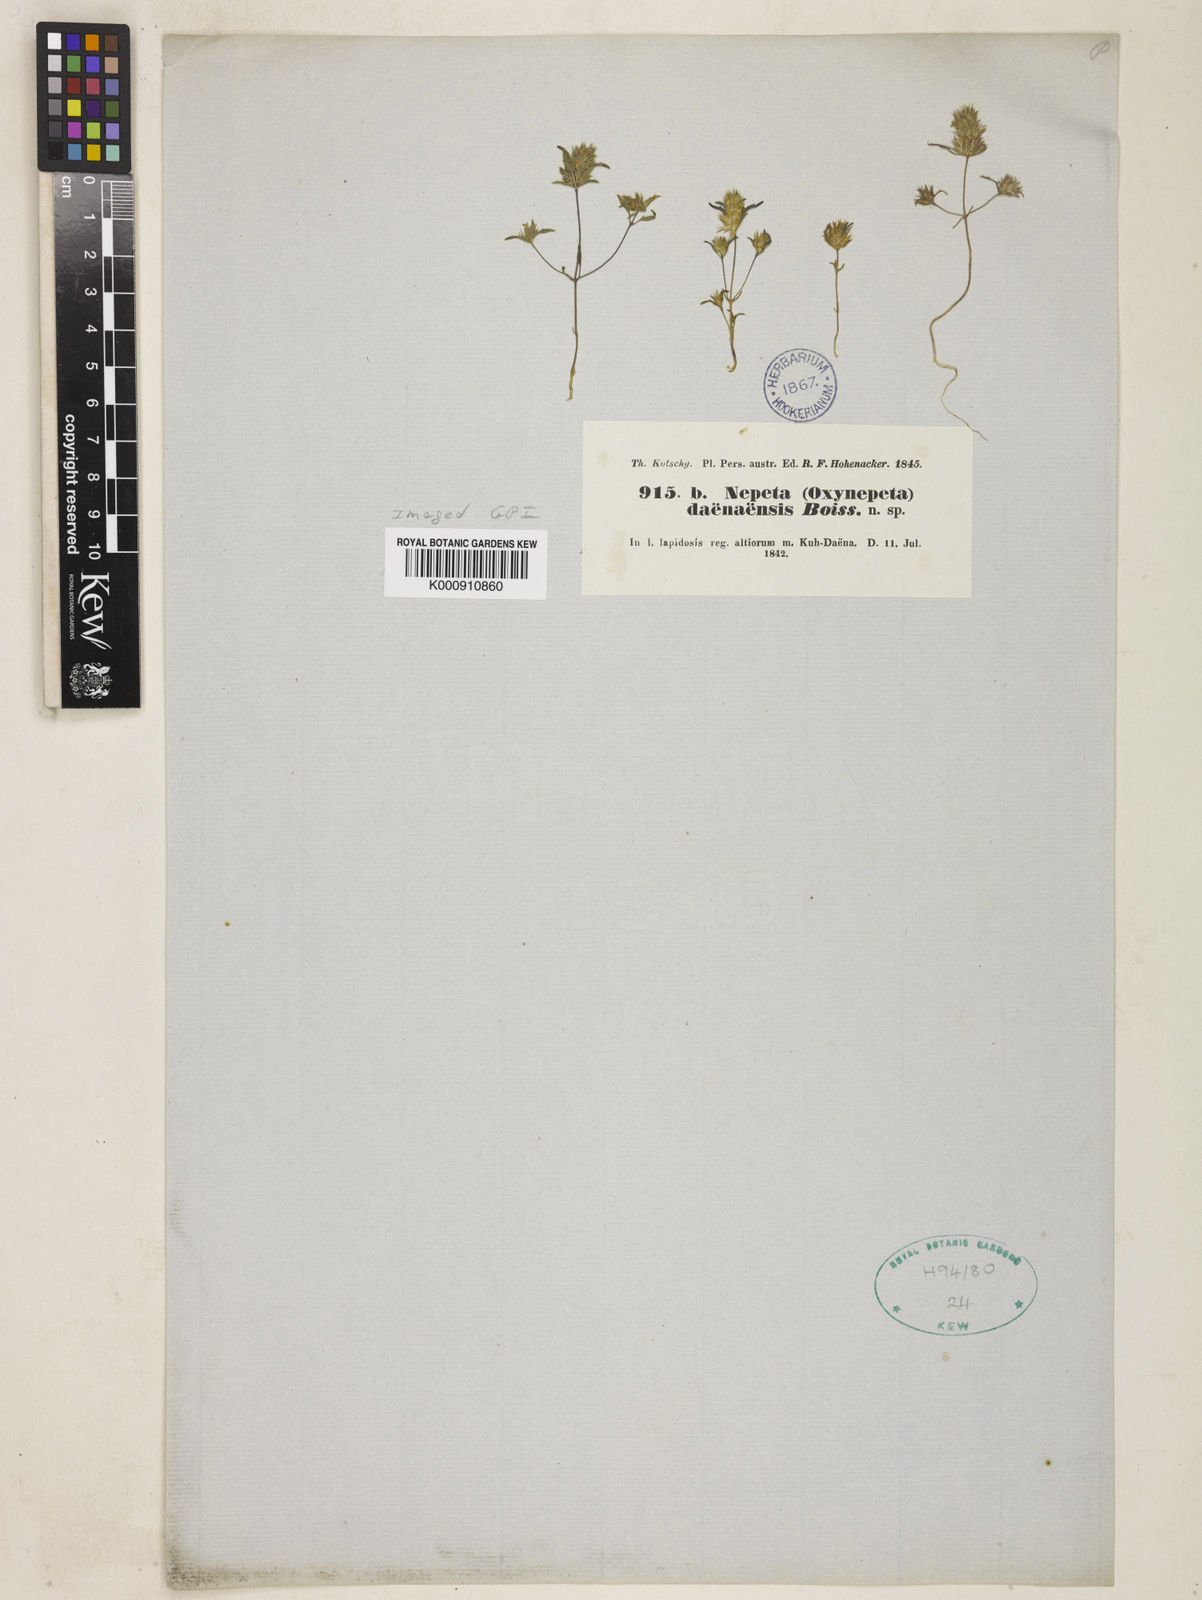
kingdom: Plantae
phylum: Tracheophyta
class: Magnoliopsida
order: Lamiales
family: Lamiaceae
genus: Nepeta
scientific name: Nepeta daenensis
